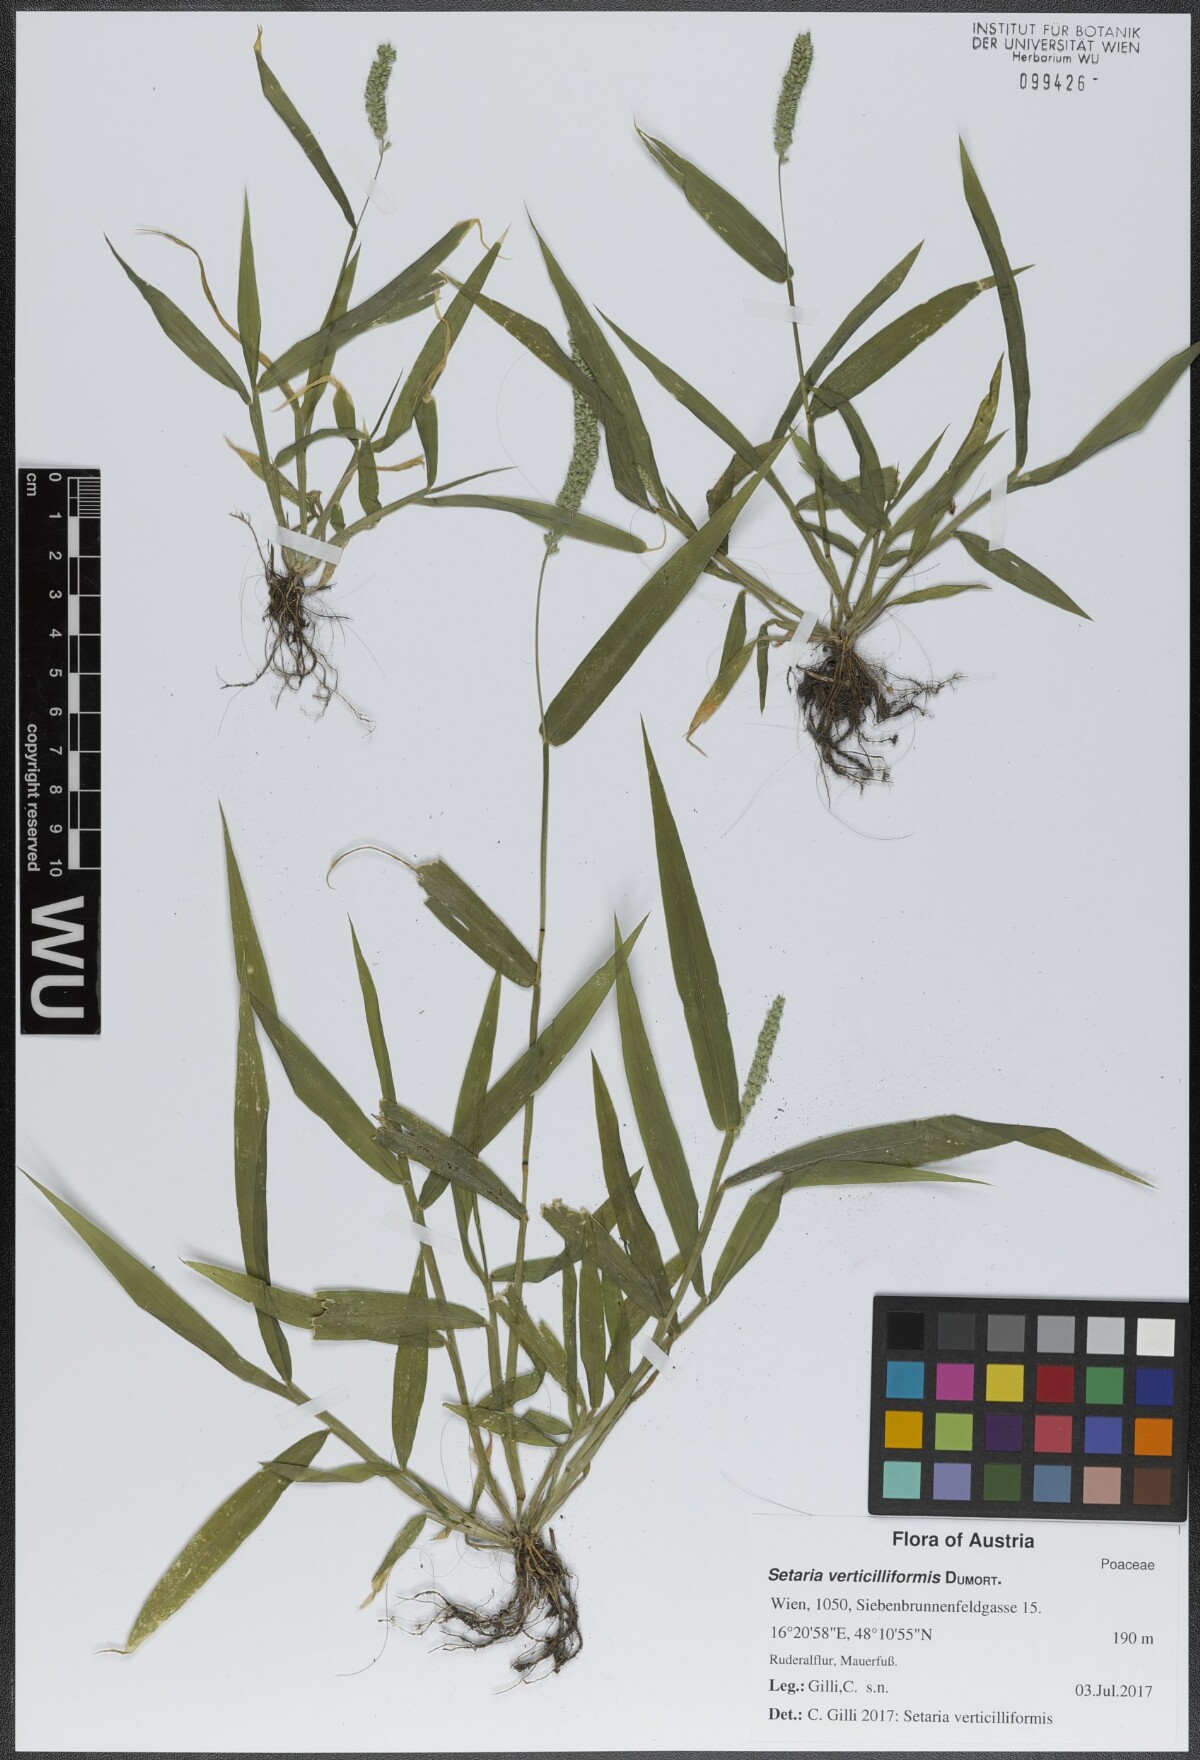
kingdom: Plantae
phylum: Tracheophyta
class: Liliopsida
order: Poales
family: Poaceae
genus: Setaria
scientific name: Setaria verticillata
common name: Hooked bristlegrass
